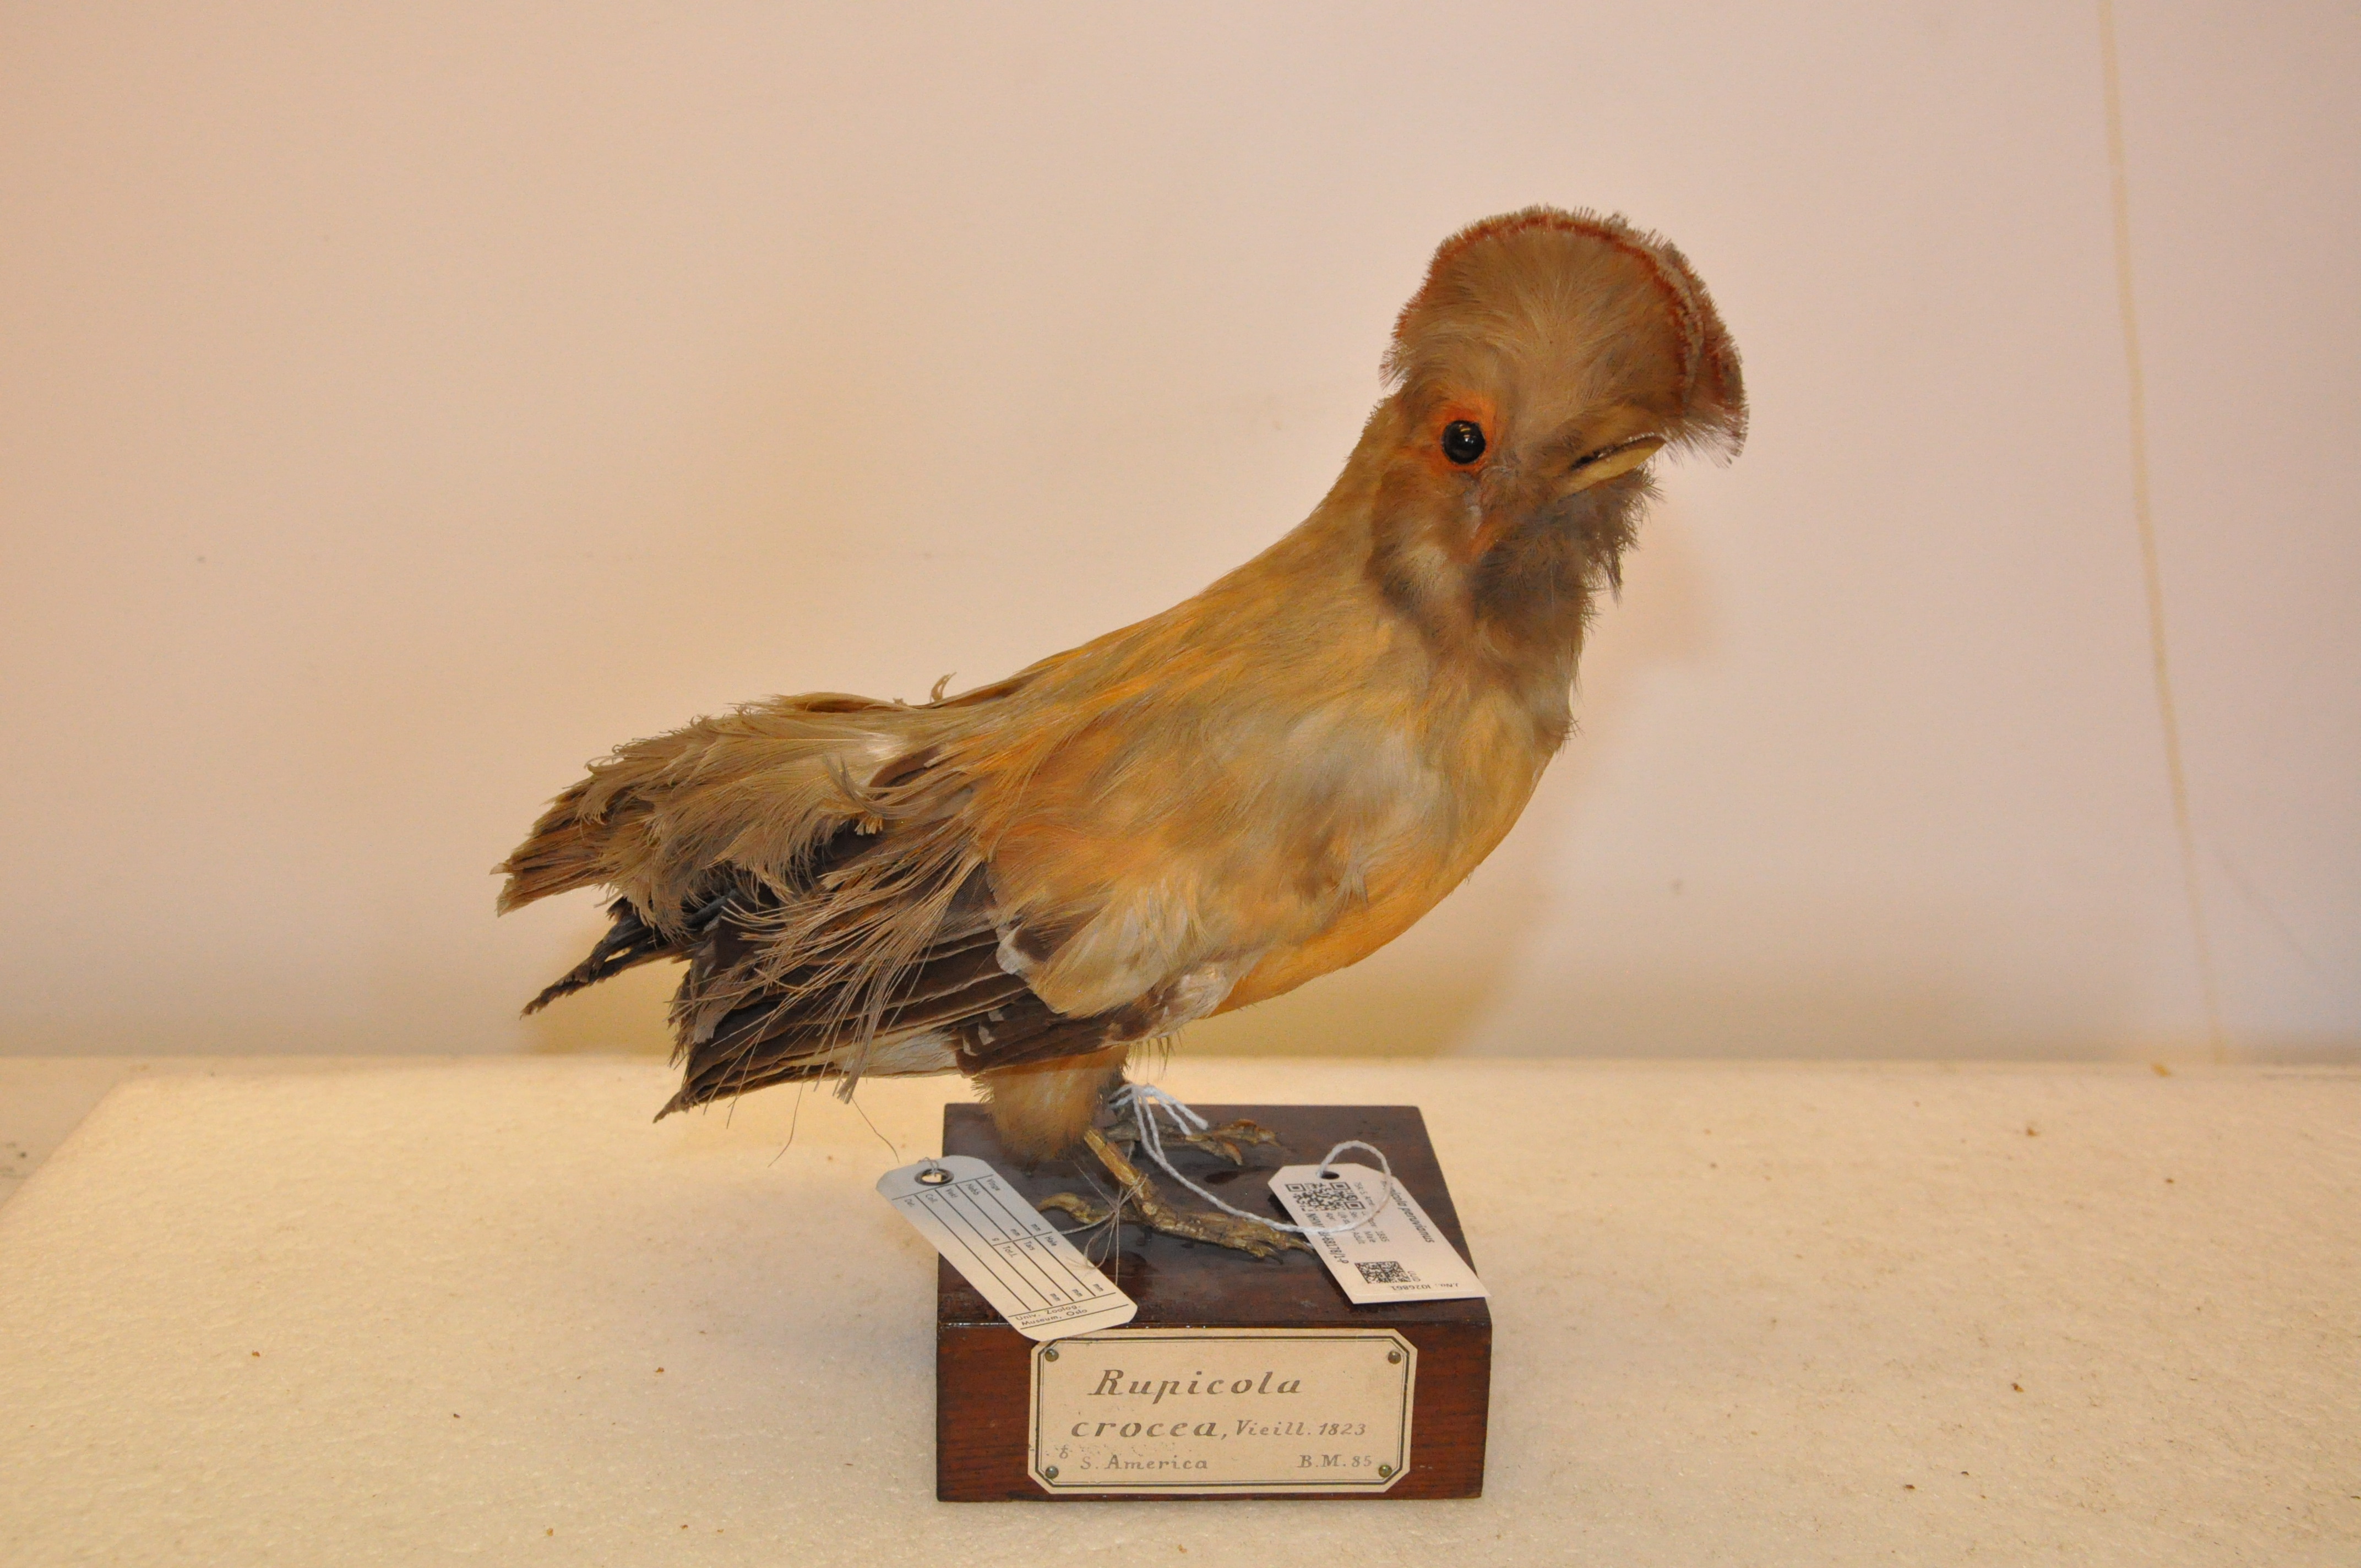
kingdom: Animalia
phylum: Chordata
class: Aves
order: Passeriformes
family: Cotingidae
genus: Rupicola
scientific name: Rupicola peruvianus
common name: Andean cock-of-the-rock
